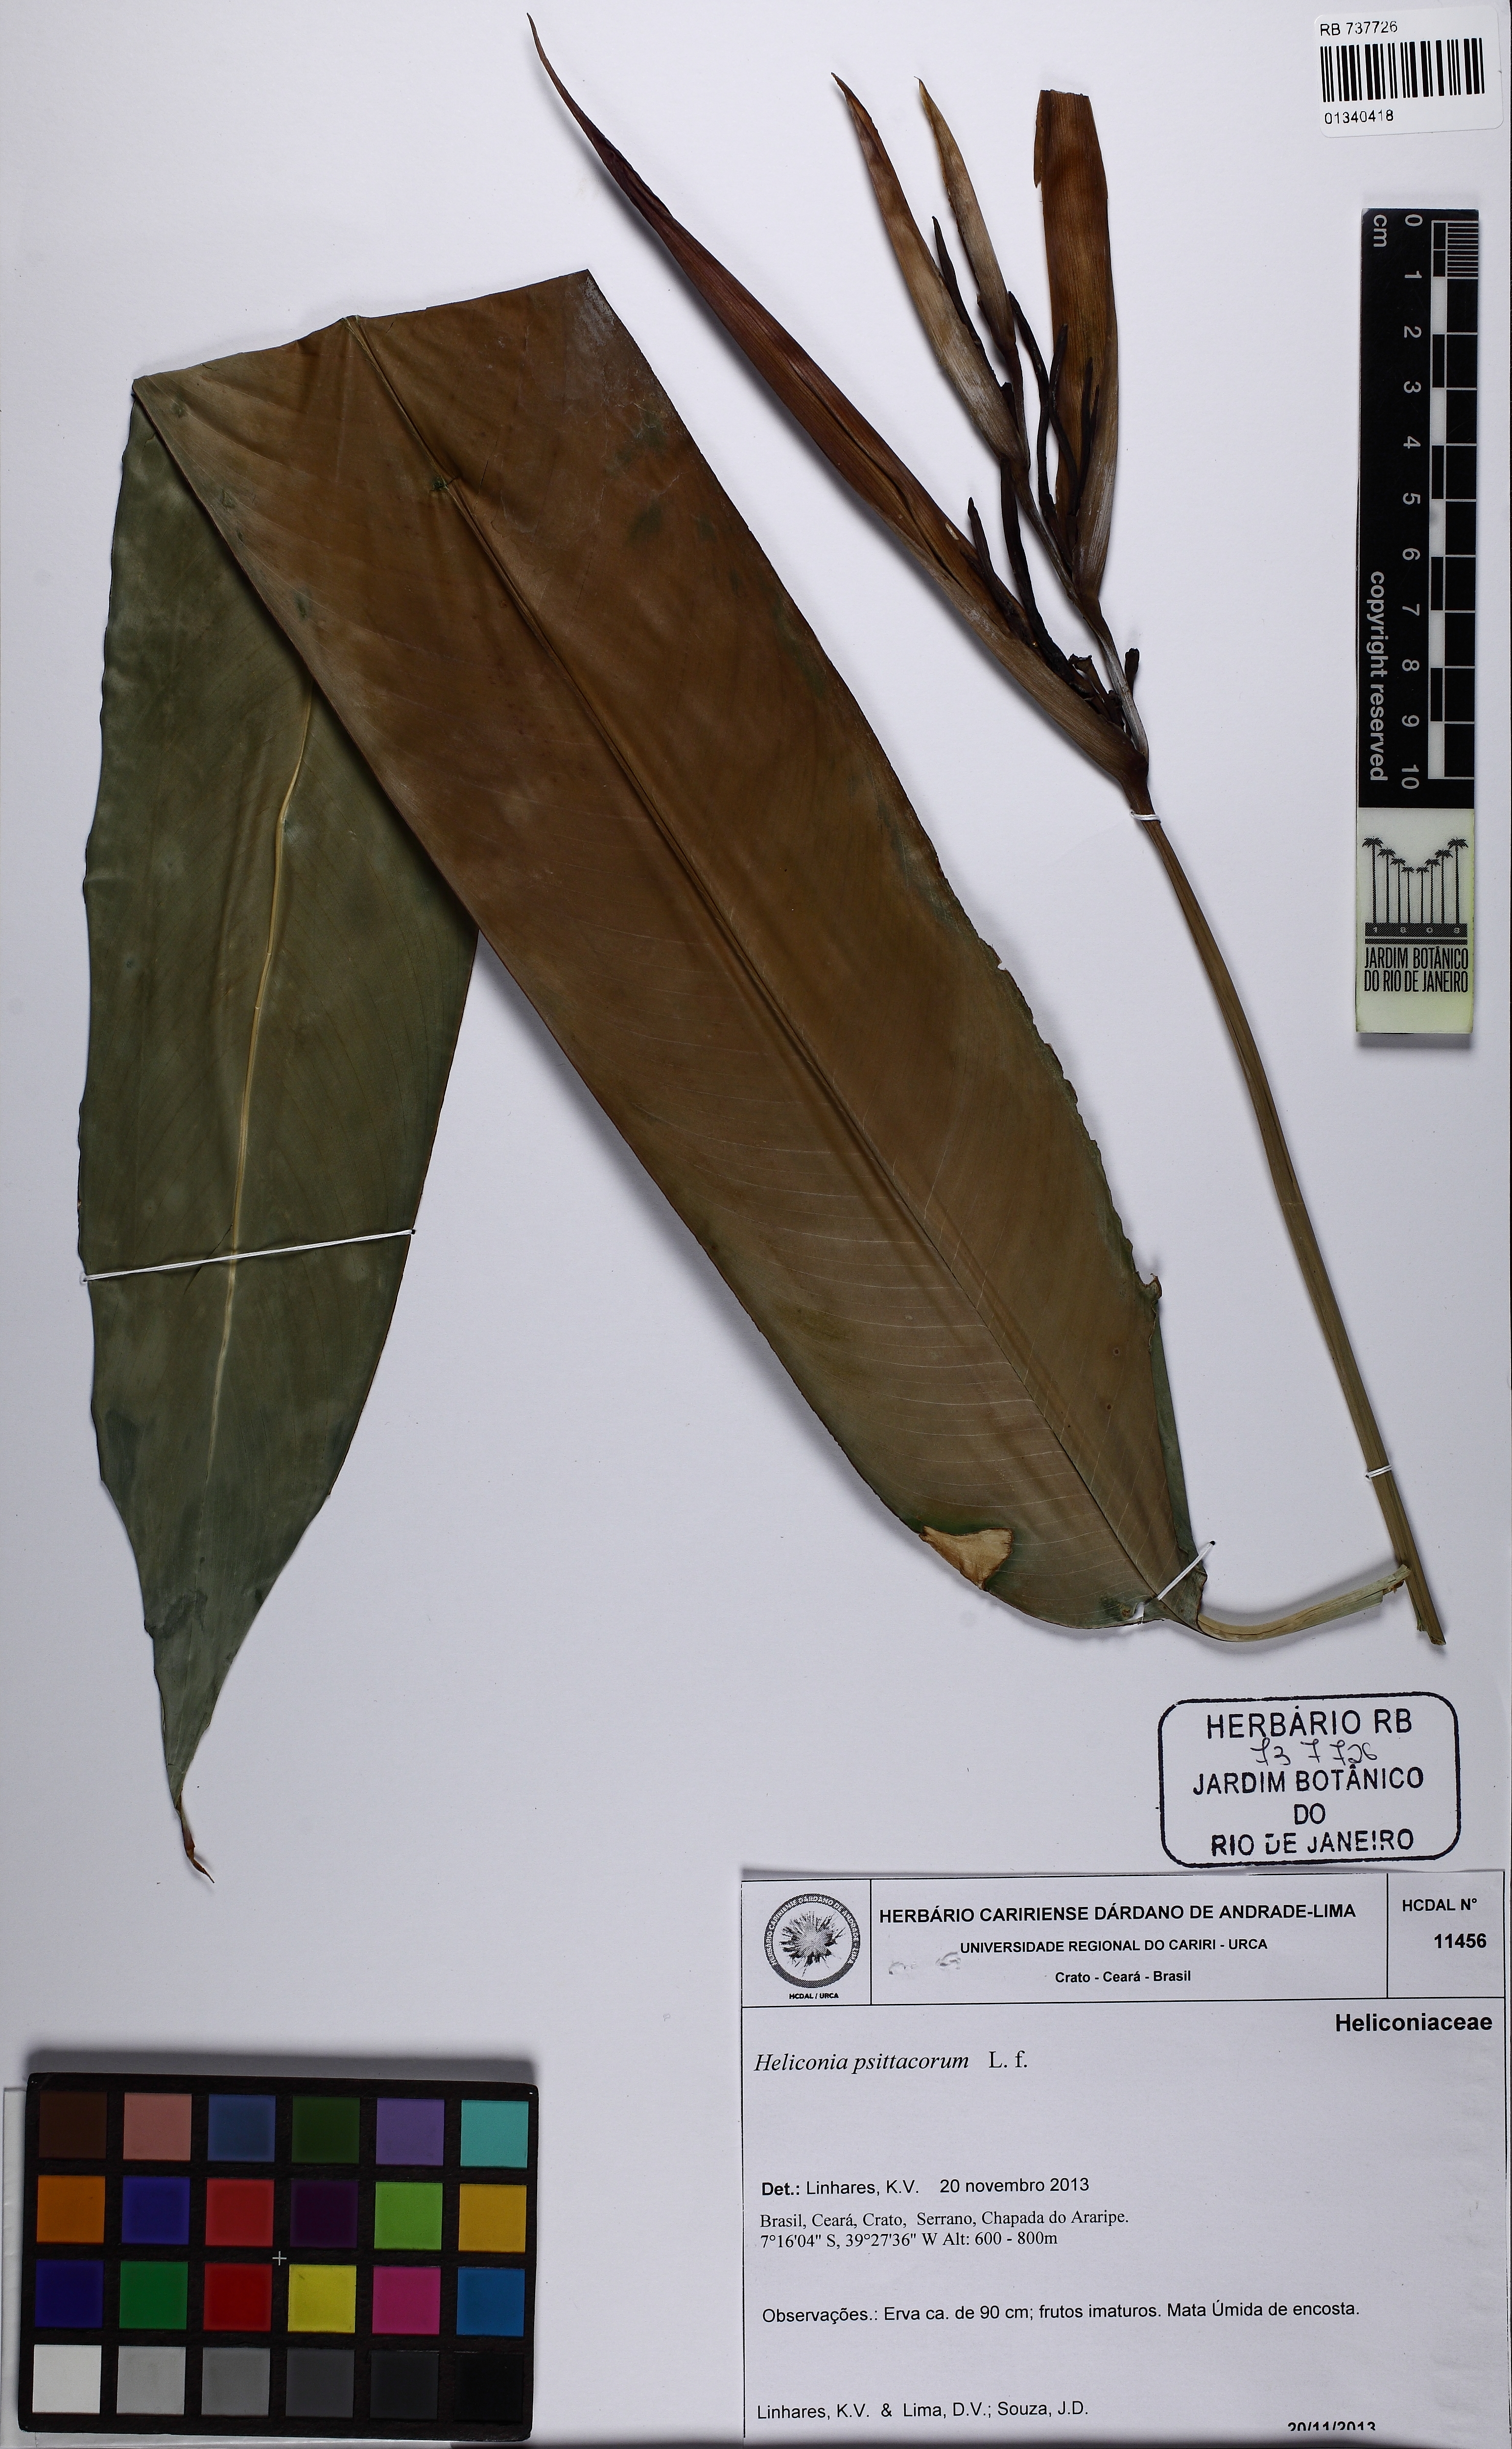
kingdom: Plantae
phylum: Tracheophyta
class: Liliopsida
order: Zingiberales
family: Heliconiaceae
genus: Heliconia
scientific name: Heliconia psittacorum
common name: Parrot's-flower
